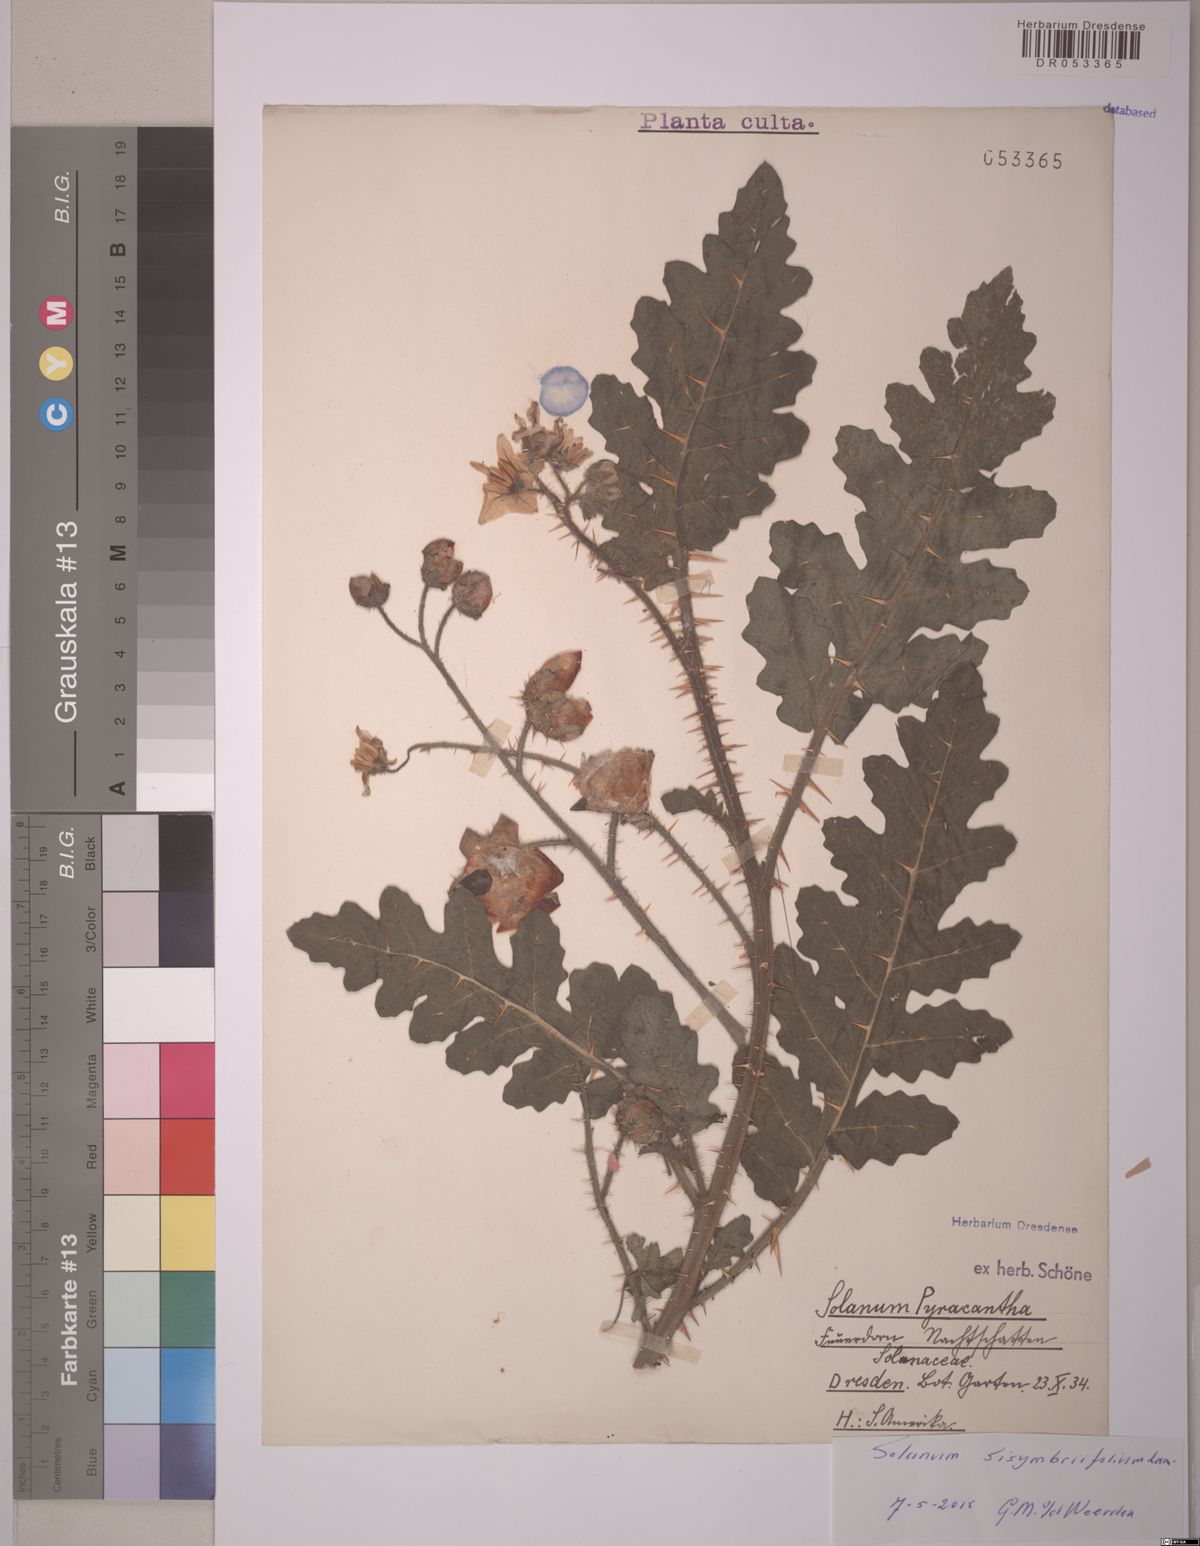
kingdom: Plantae
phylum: Tracheophyta
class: Magnoliopsida
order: Solanales
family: Solanaceae
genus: Solanum
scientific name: Solanum sisymbriifolium
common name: Red buffalo-bur
